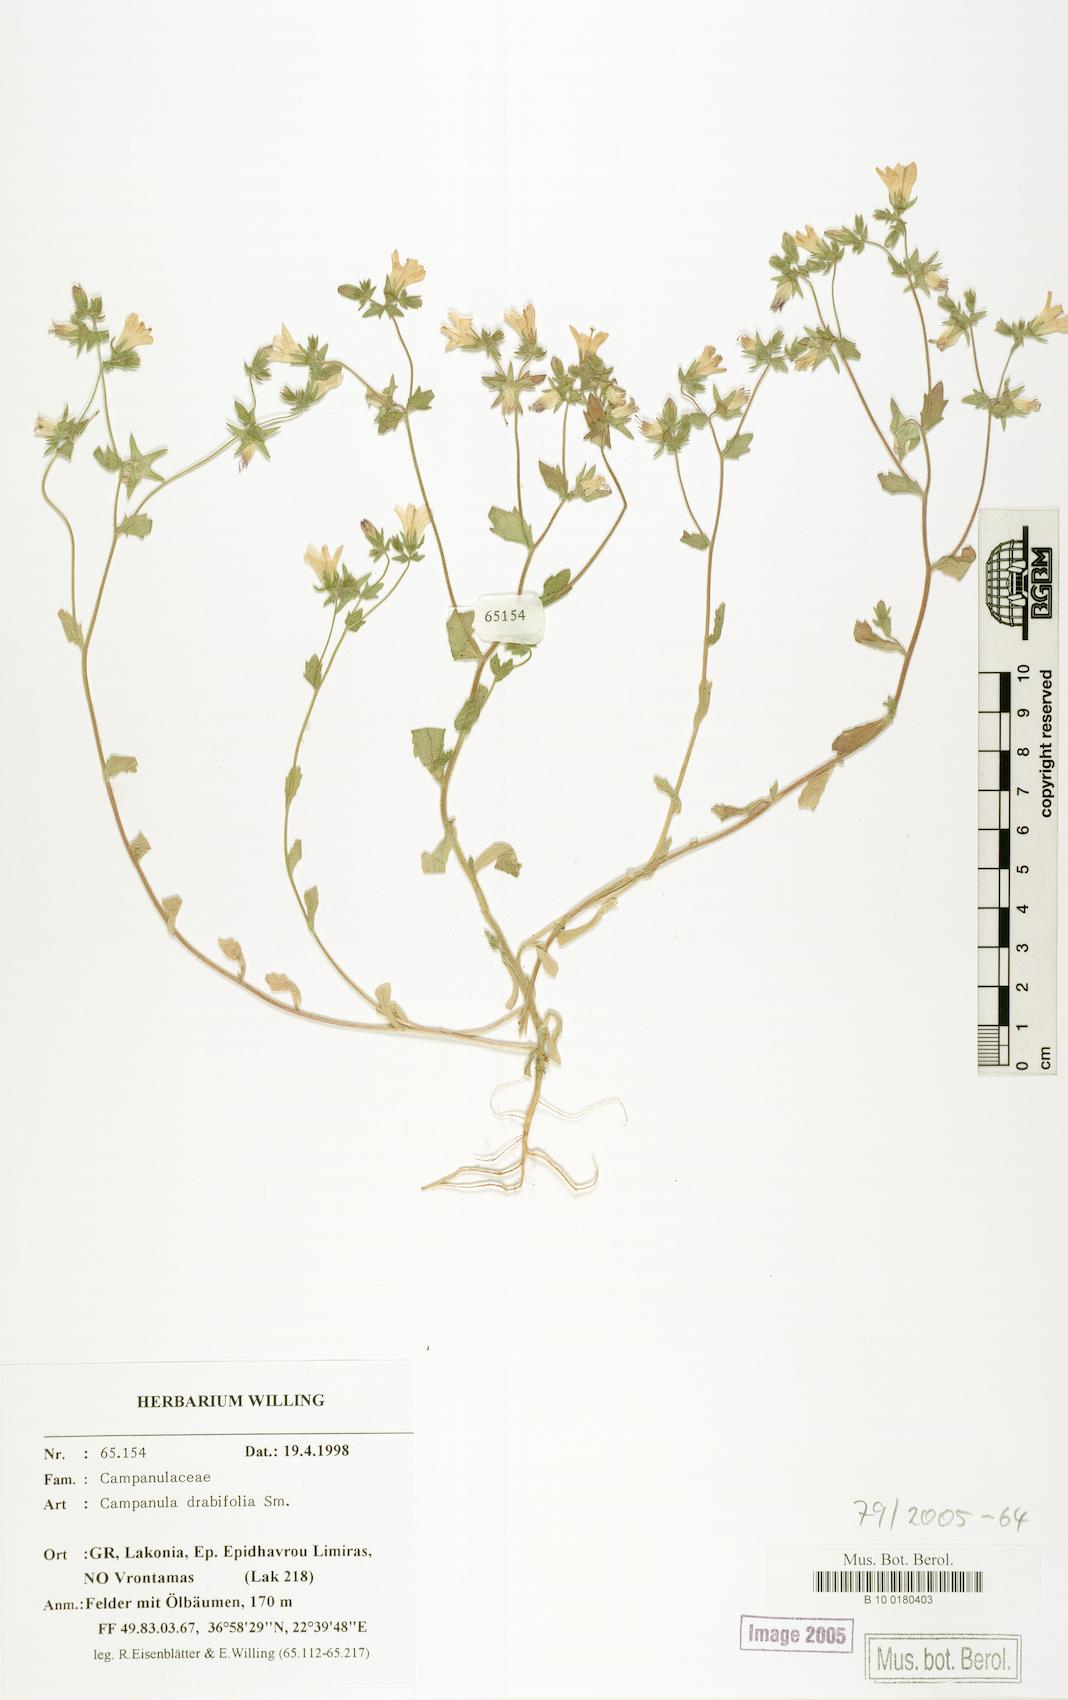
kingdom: Plantae
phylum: Tracheophyta
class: Magnoliopsida
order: Asterales
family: Campanulaceae
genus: Campanula
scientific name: Campanula drabifolia
